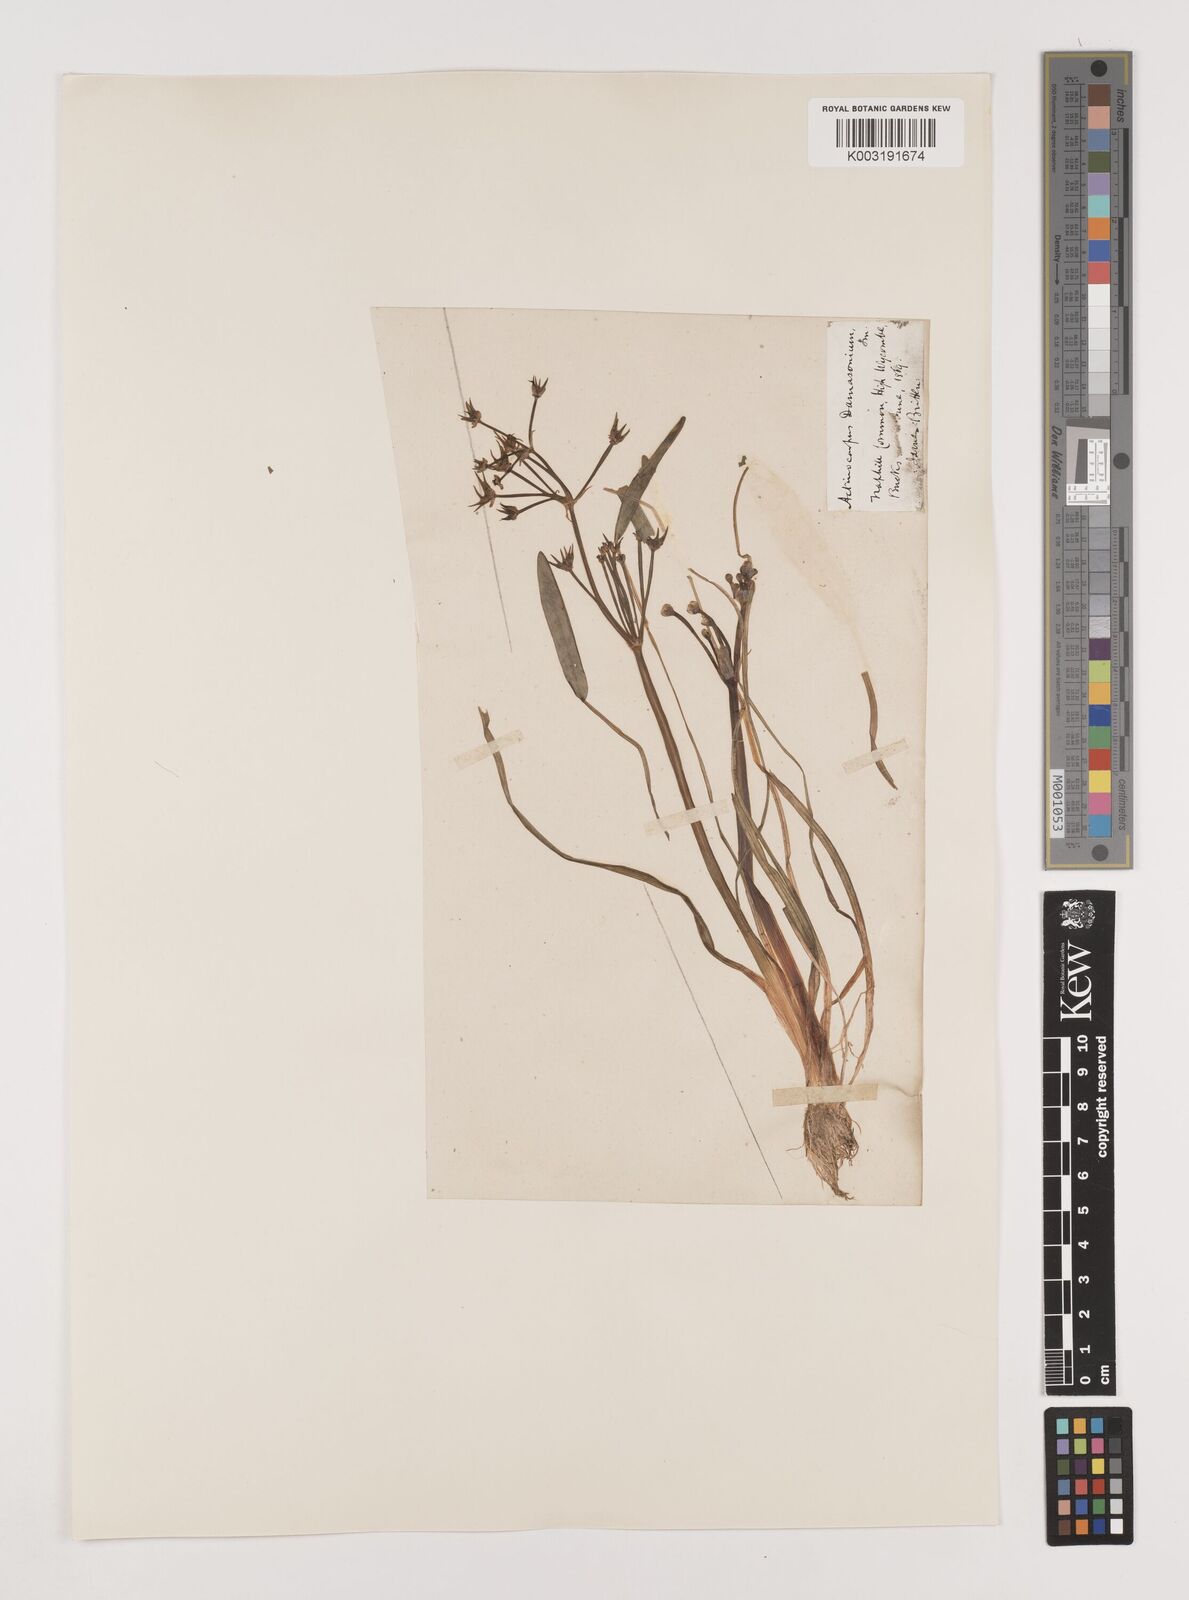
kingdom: Plantae
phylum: Tracheophyta
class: Liliopsida
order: Alismatales
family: Alismataceae
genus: Damasonium
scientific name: Damasonium alisma
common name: Starfruit
